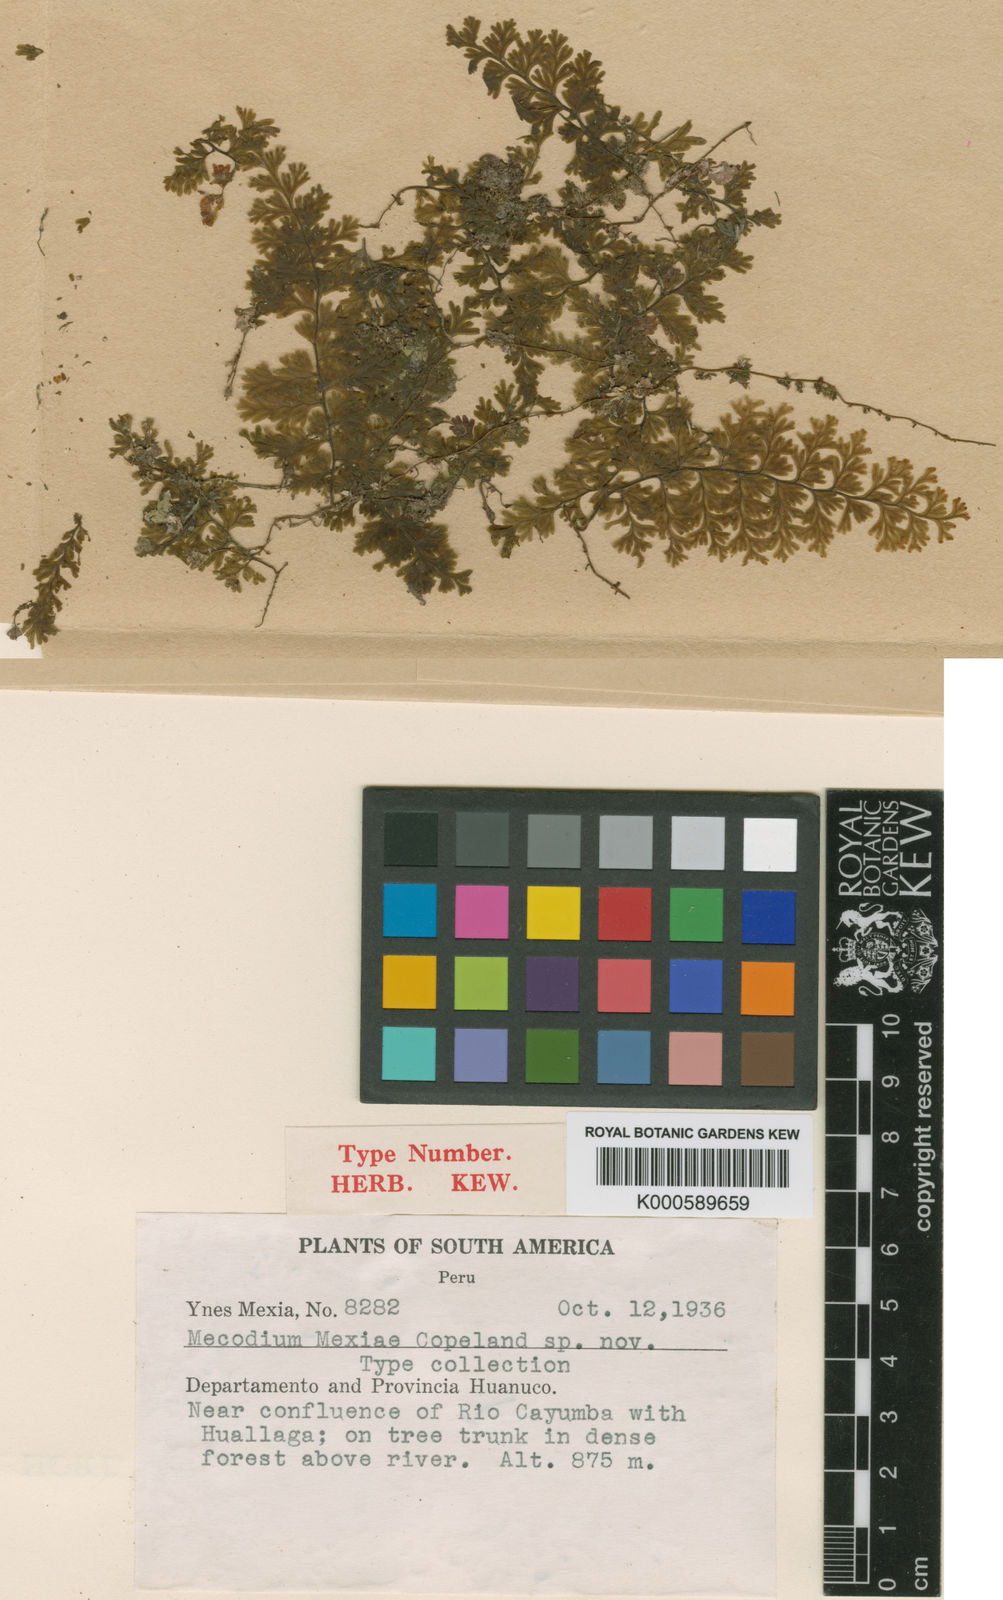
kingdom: Plantae
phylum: Tracheophyta
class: Polypodiopsida
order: Hymenophyllales
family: Hymenophyllaceae
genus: Hymenophyllum
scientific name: Hymenophyllum polyanthos
